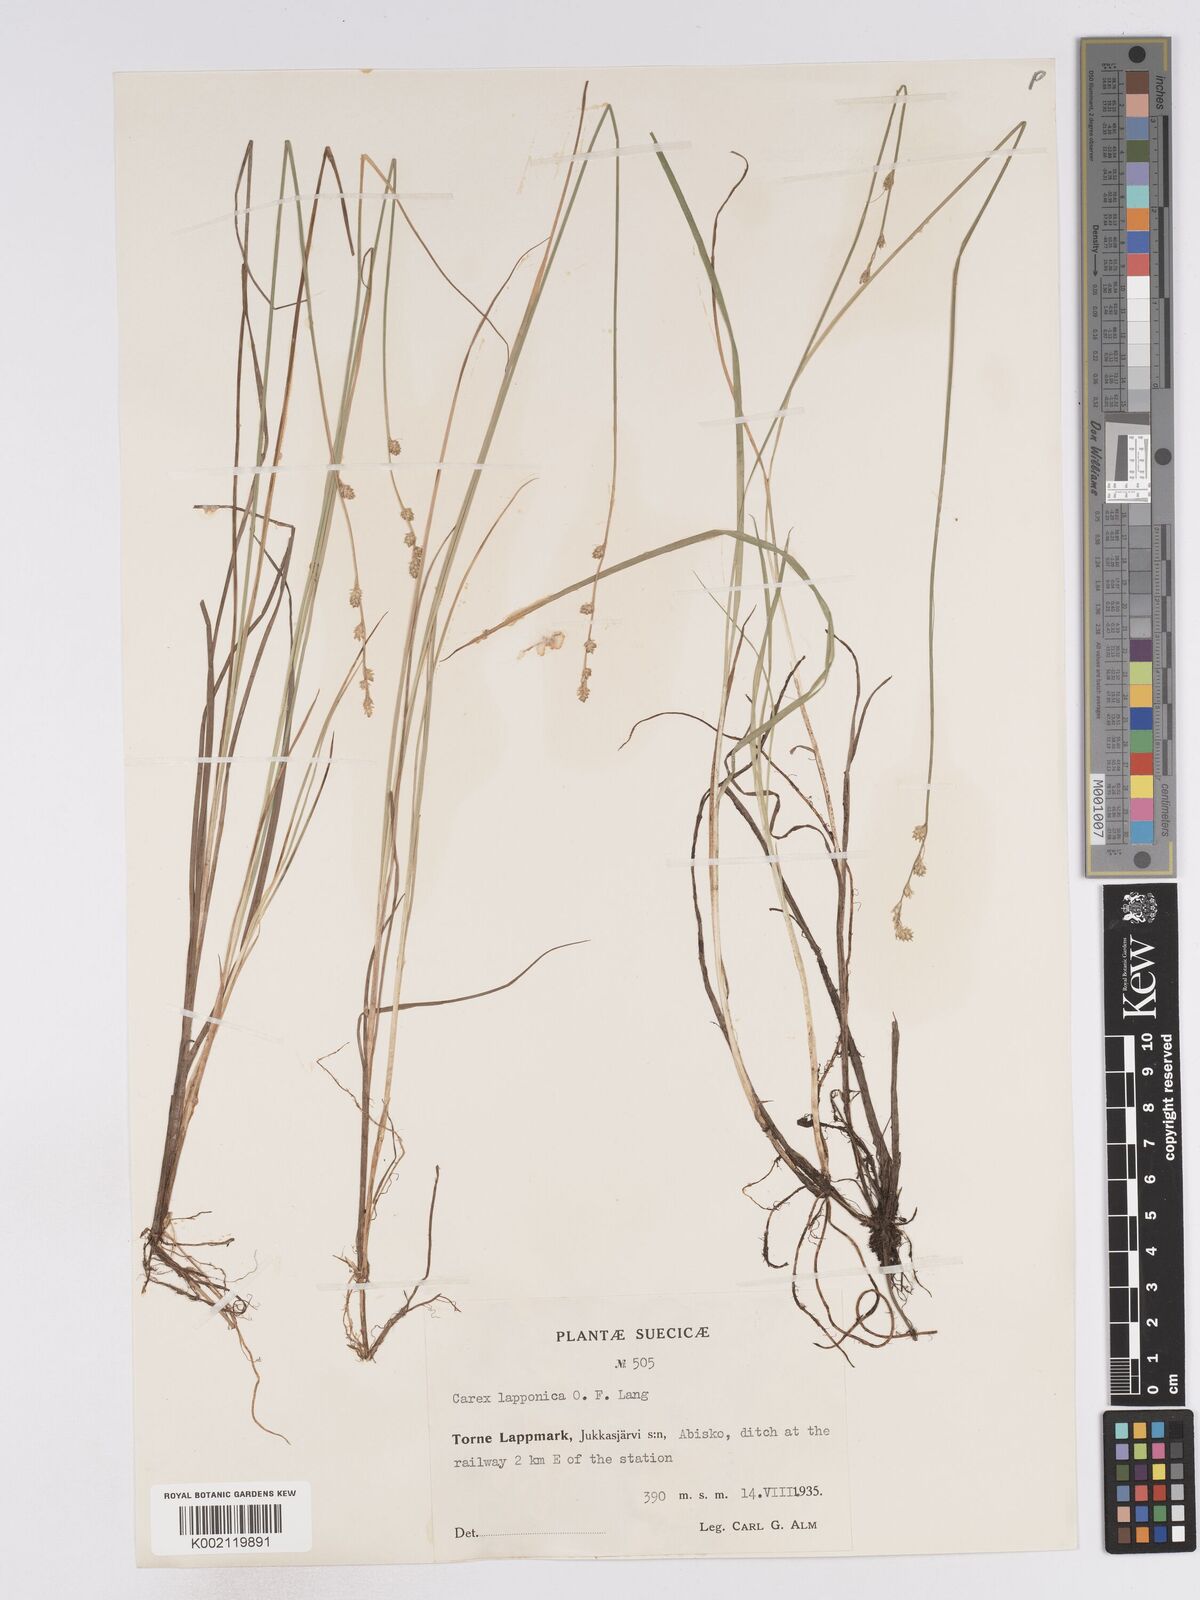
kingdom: Plantae
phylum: Tracheophyta
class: Liliopsida
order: Poales
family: Cyperaceae
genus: Carex
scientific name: Carex lapponica
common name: Lapland sedge
